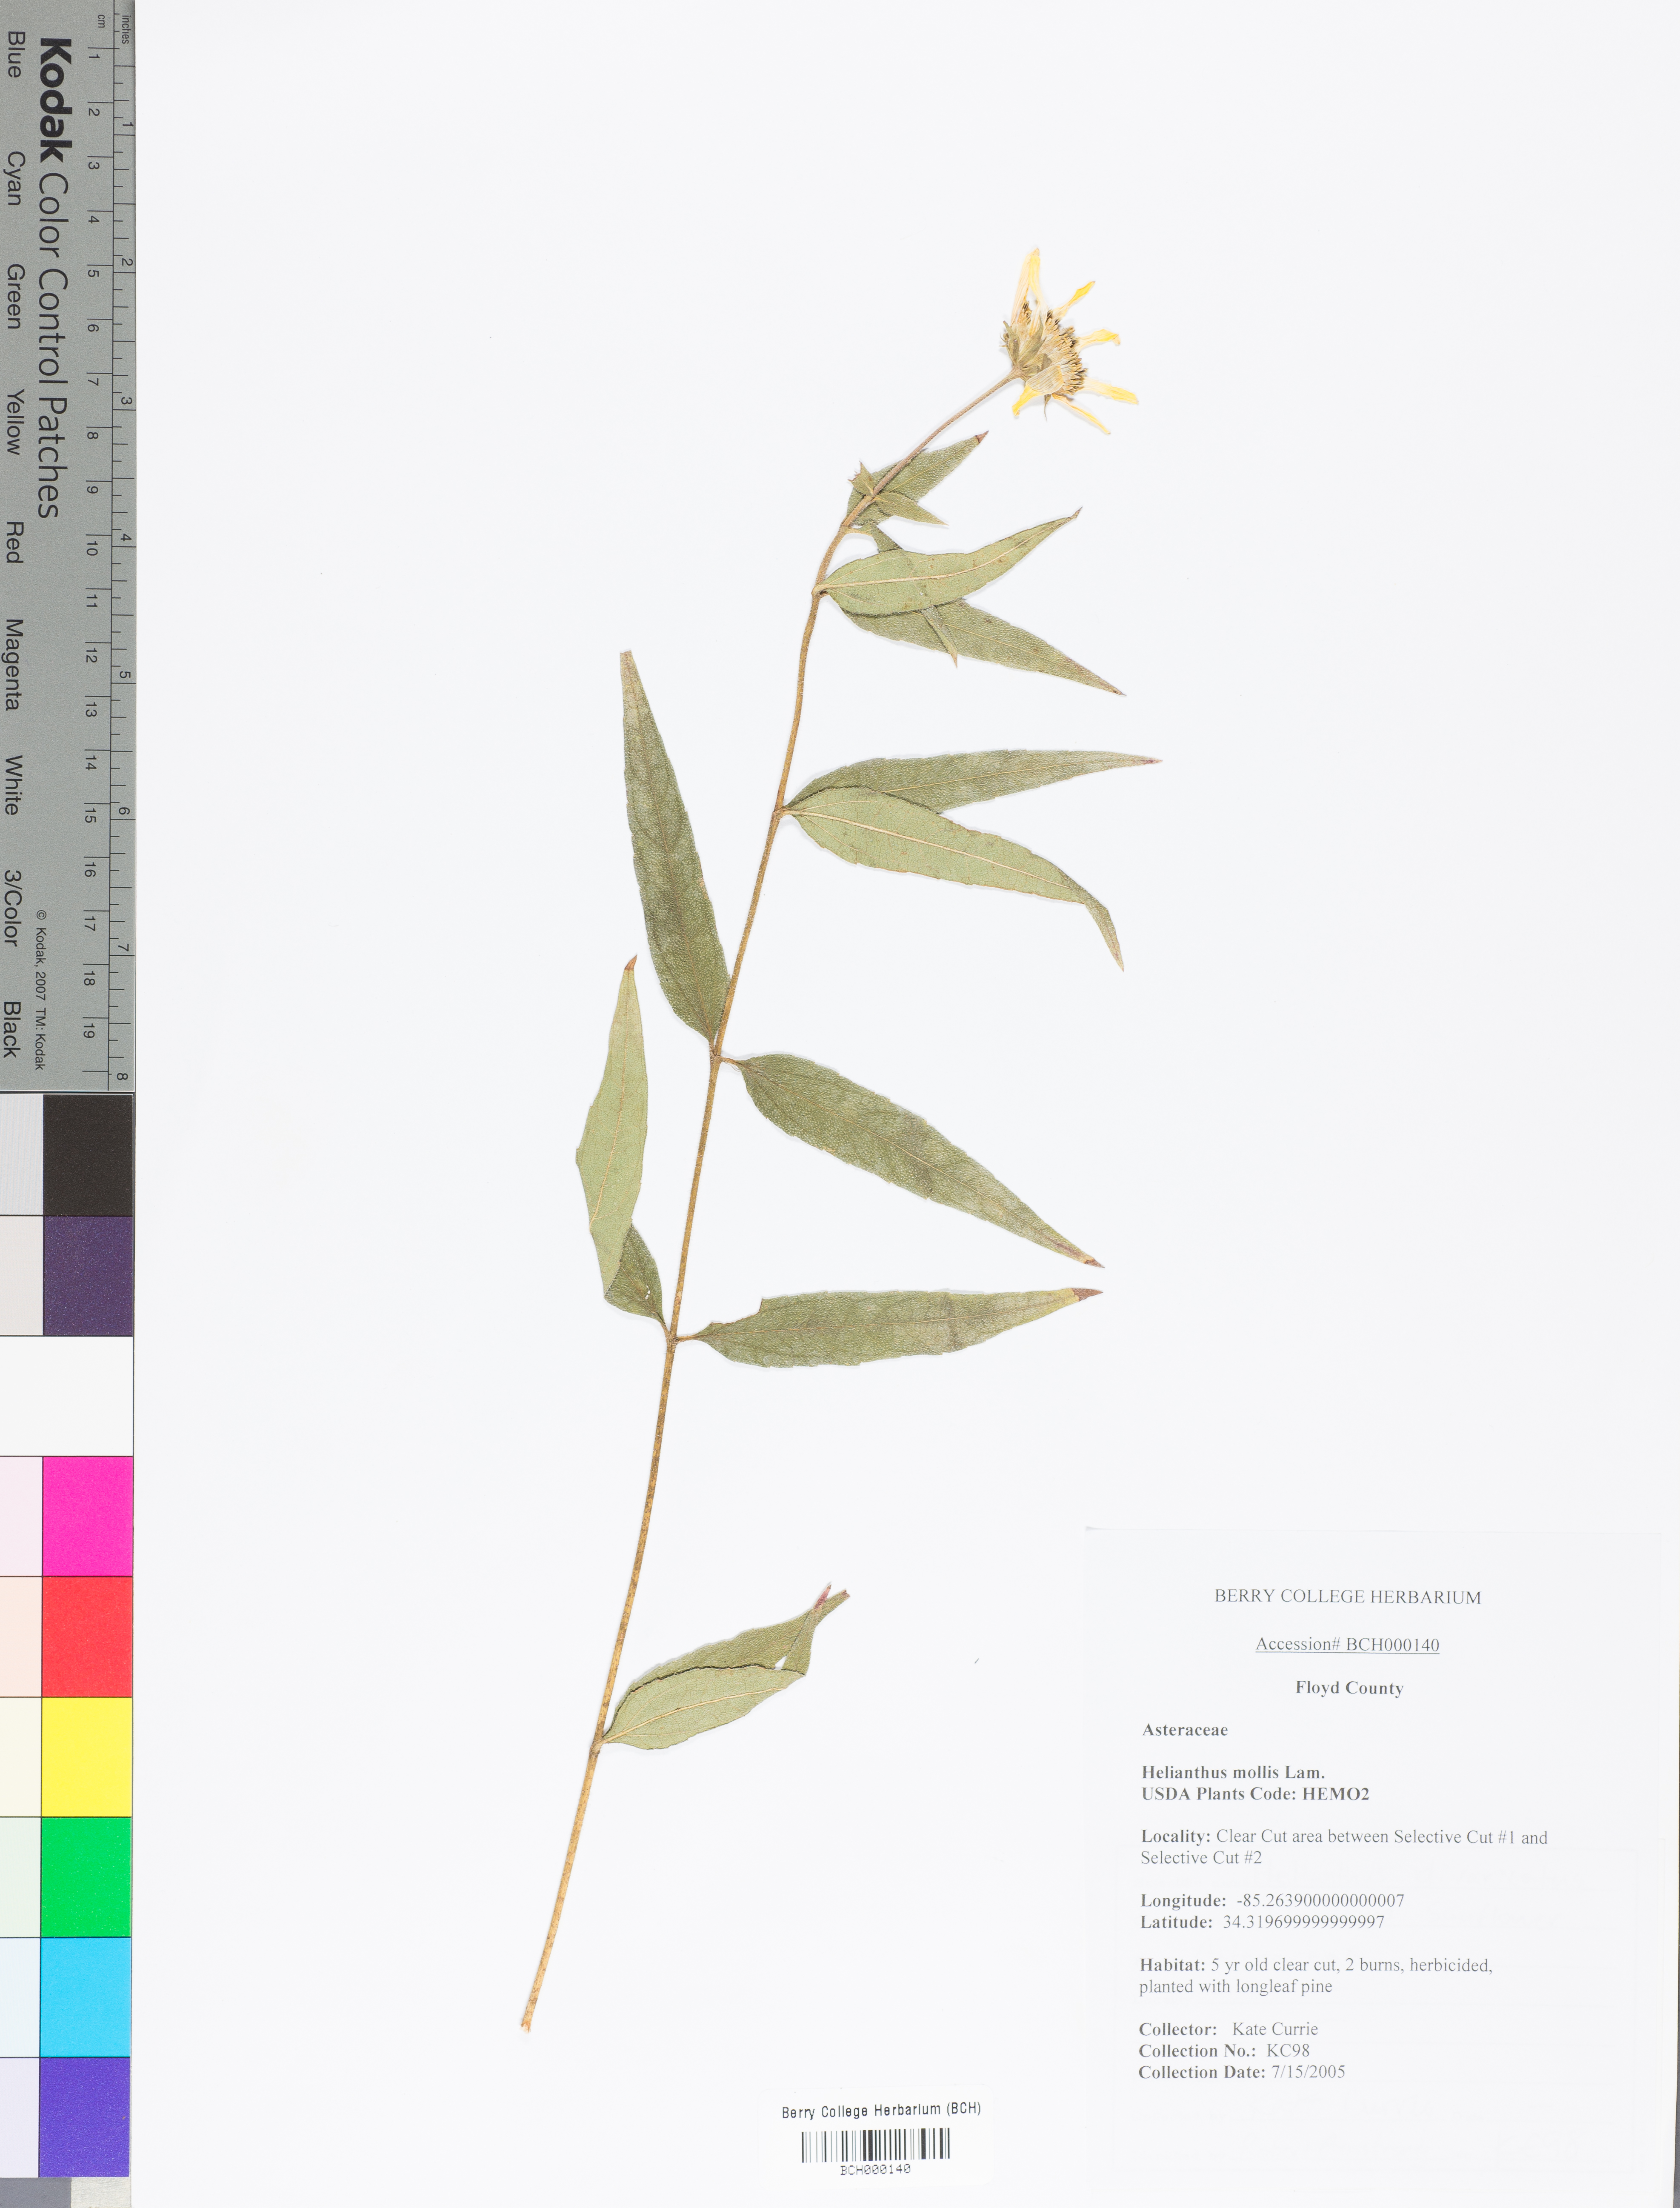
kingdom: Plantae
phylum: Tracheophyta
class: Magnoliopsida
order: Asterales
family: Asteraceae
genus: Helianthus
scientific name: Helianthus mollis
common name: Ashy sunflower
